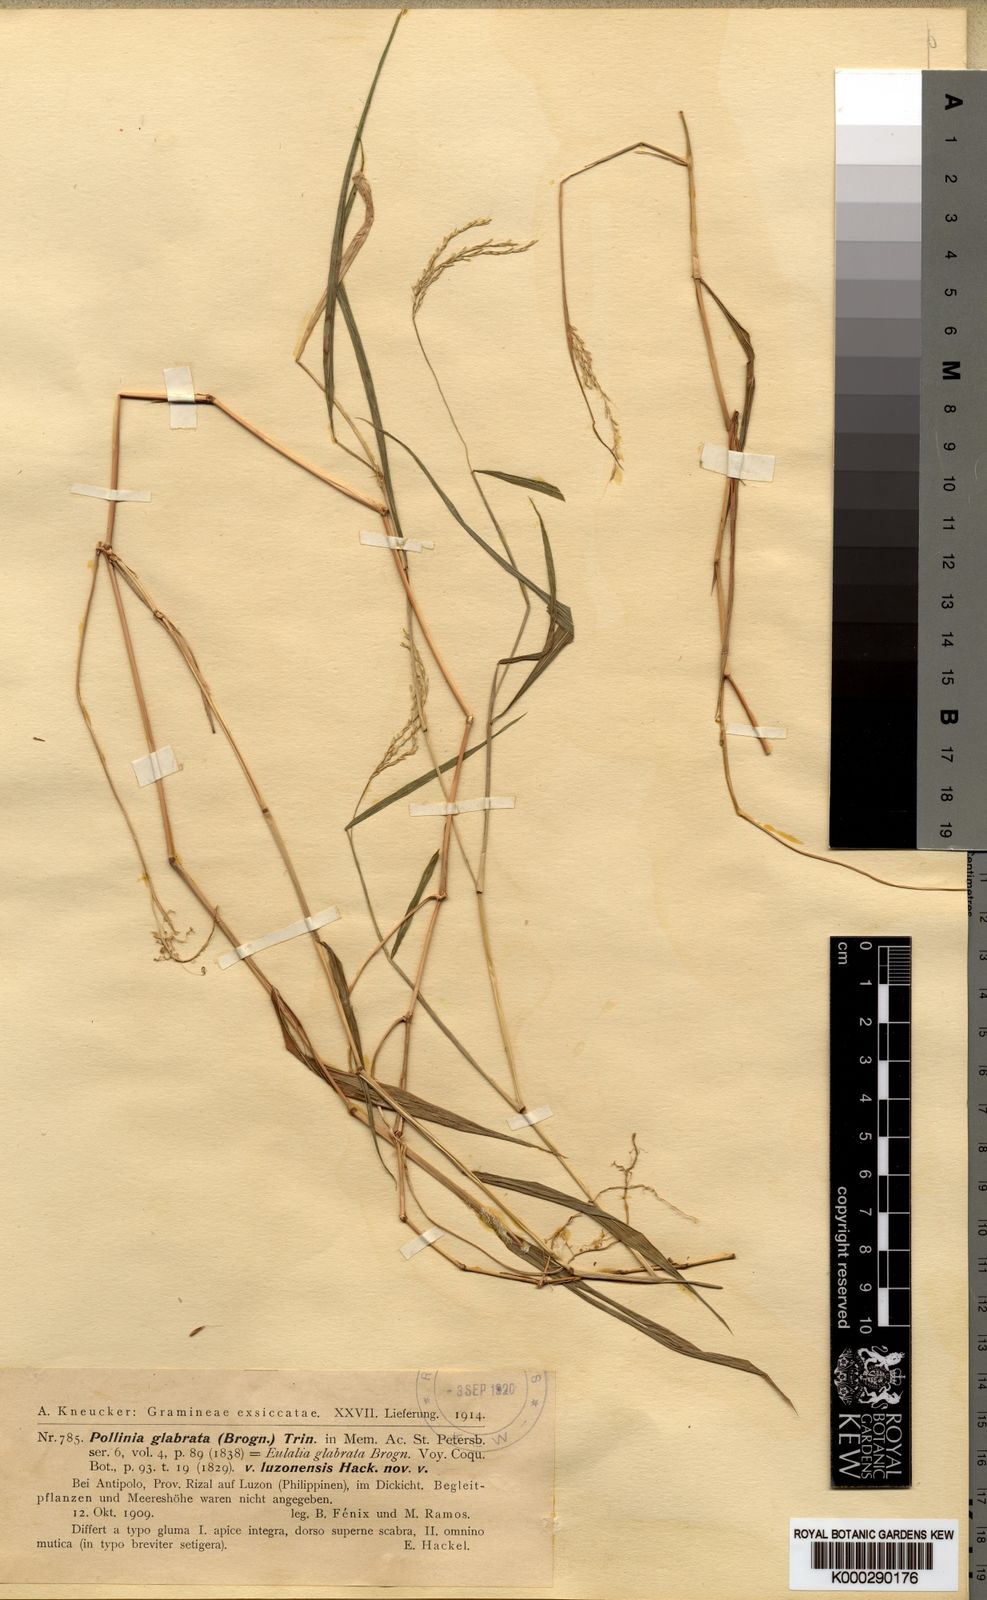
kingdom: Plantae
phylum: Tracheophyta
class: Liliopsida
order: Poales
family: Poaceae
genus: Microstegium
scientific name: Microstegium glabratum
